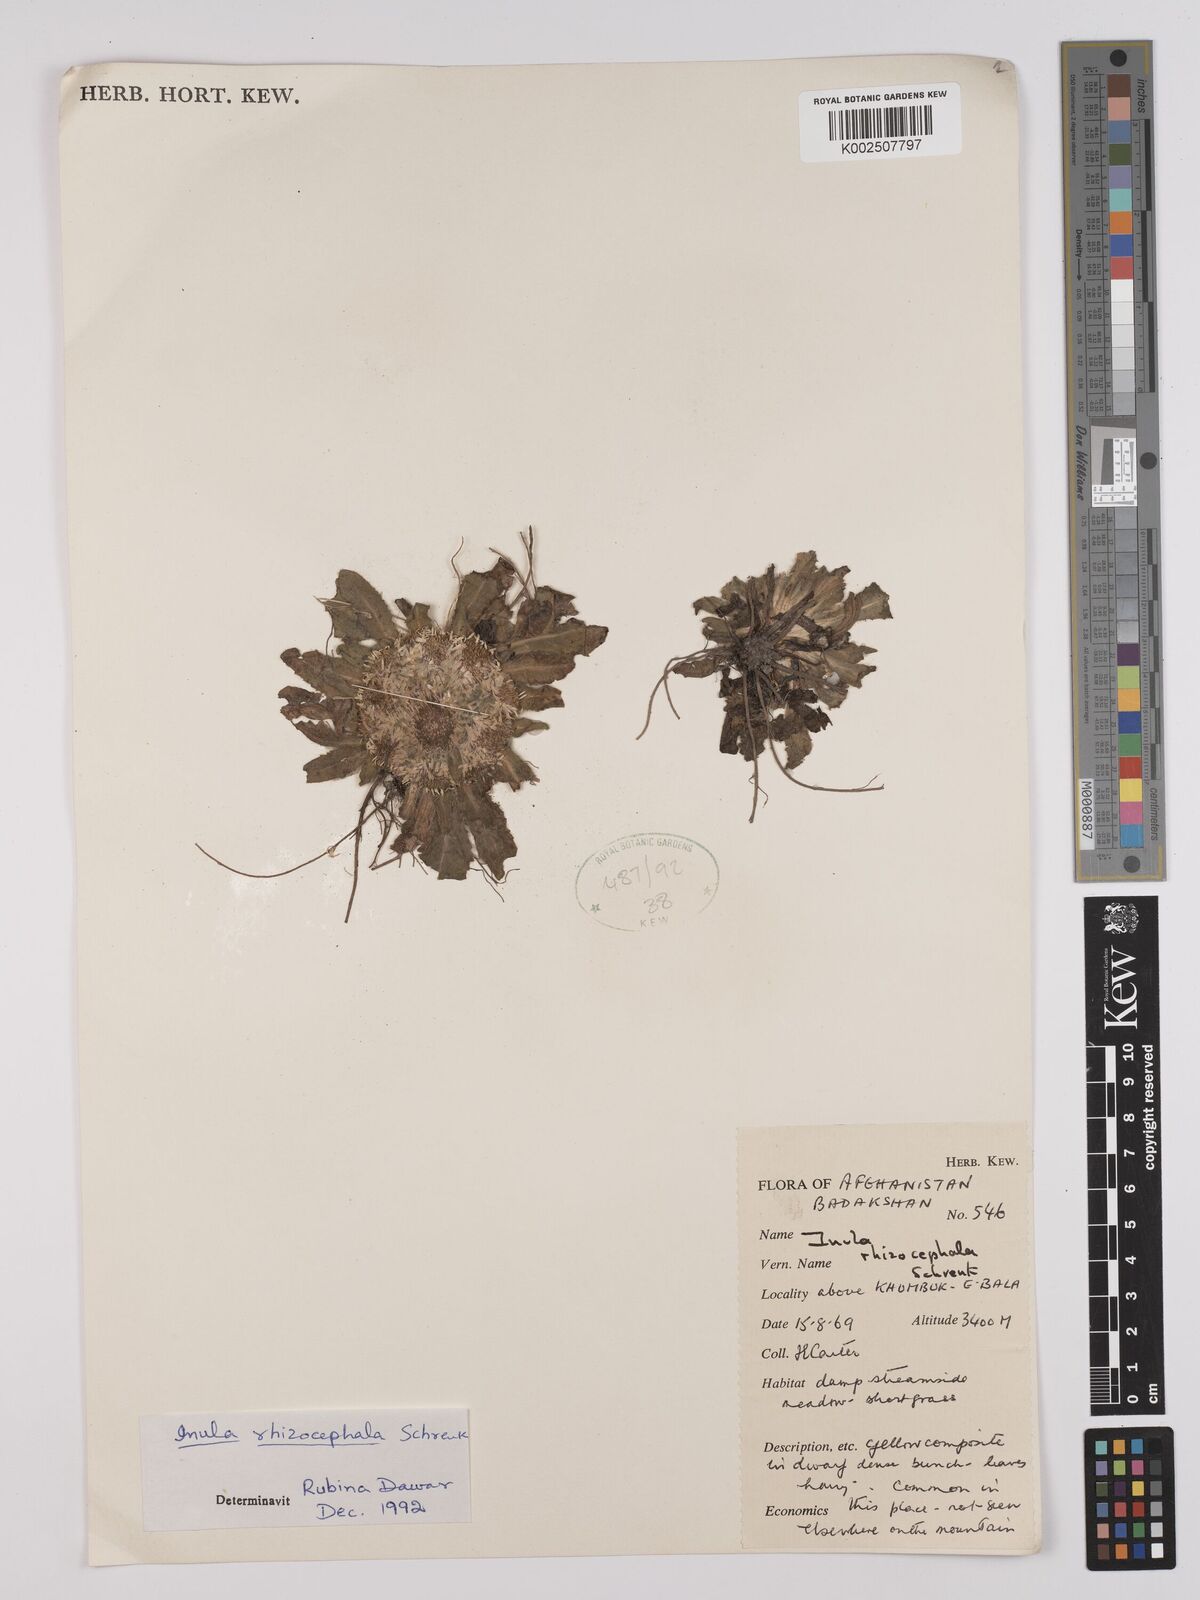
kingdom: Plantae
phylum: Tracheophyta
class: Magnoliopsida
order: Asterales
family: Asteraceae
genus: Inula
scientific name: Inula rhizocephala
